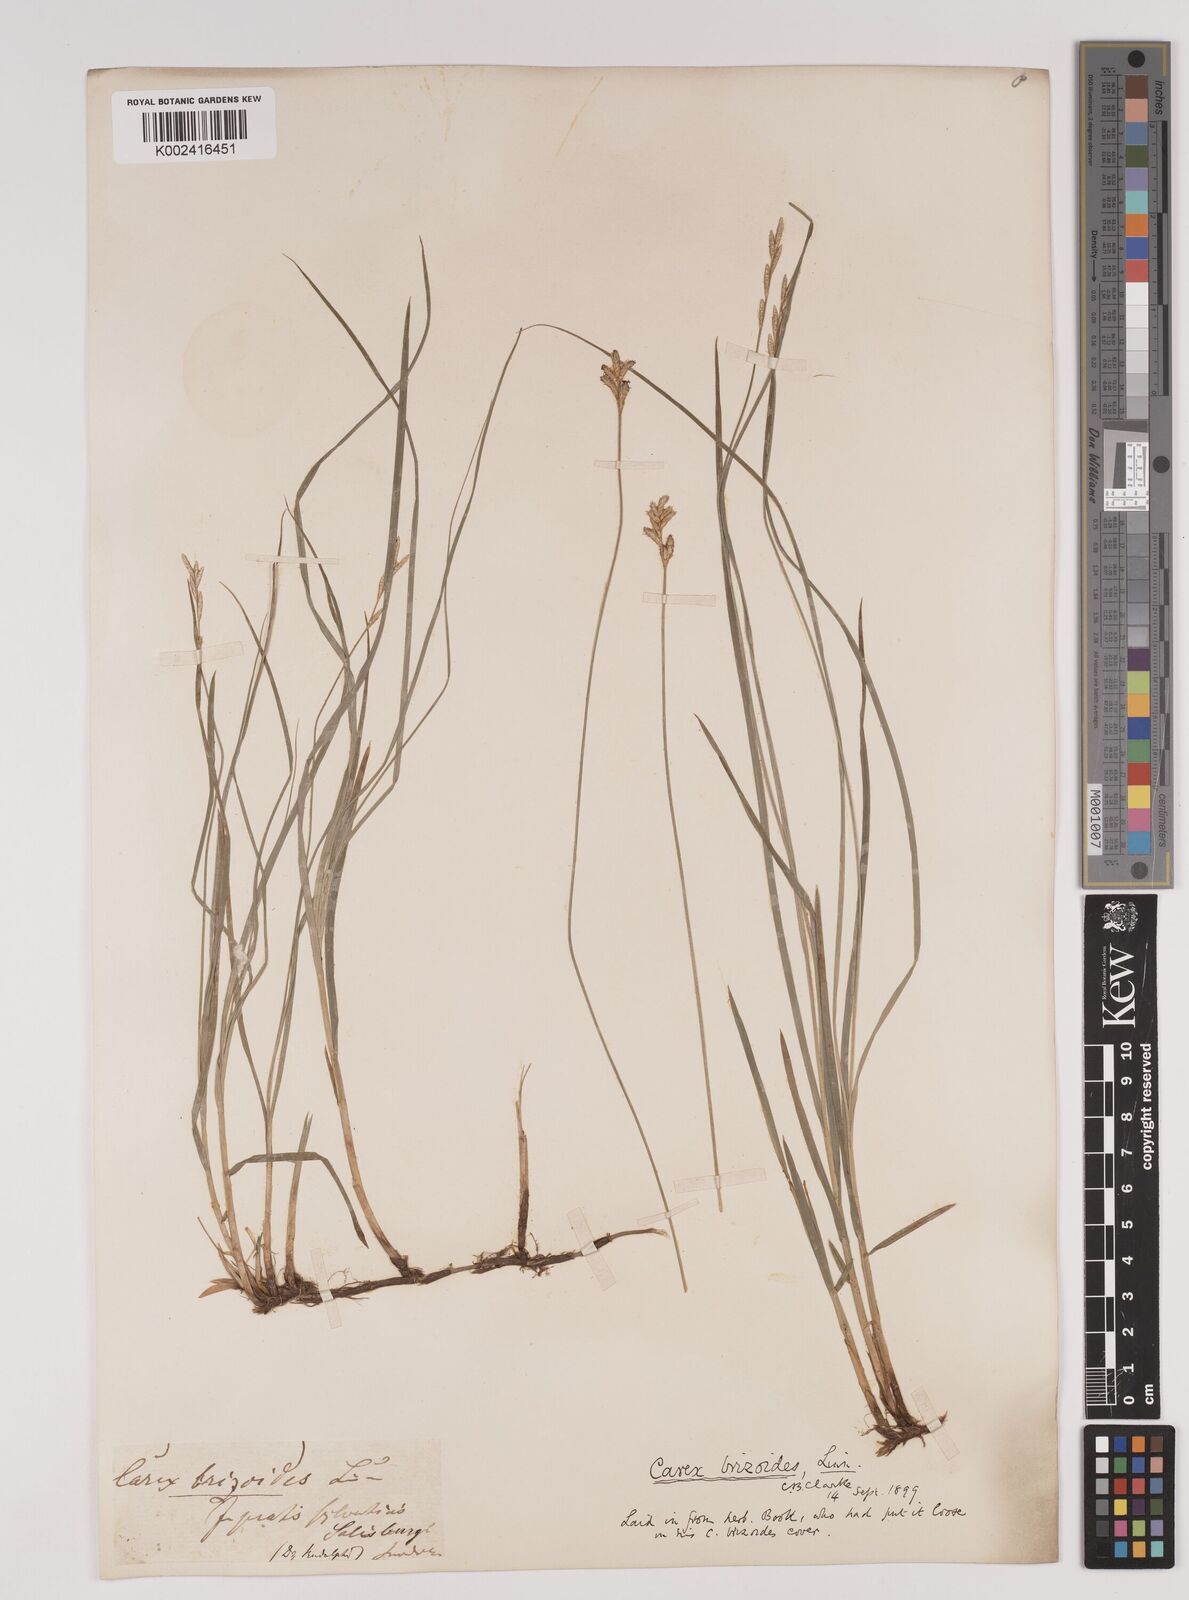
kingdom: Plantae
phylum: Tracheophyta
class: Liliopsida
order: Poales
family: Cyperaceae
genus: Carex
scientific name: Carex brizoides
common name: Quaking-grass sedge
